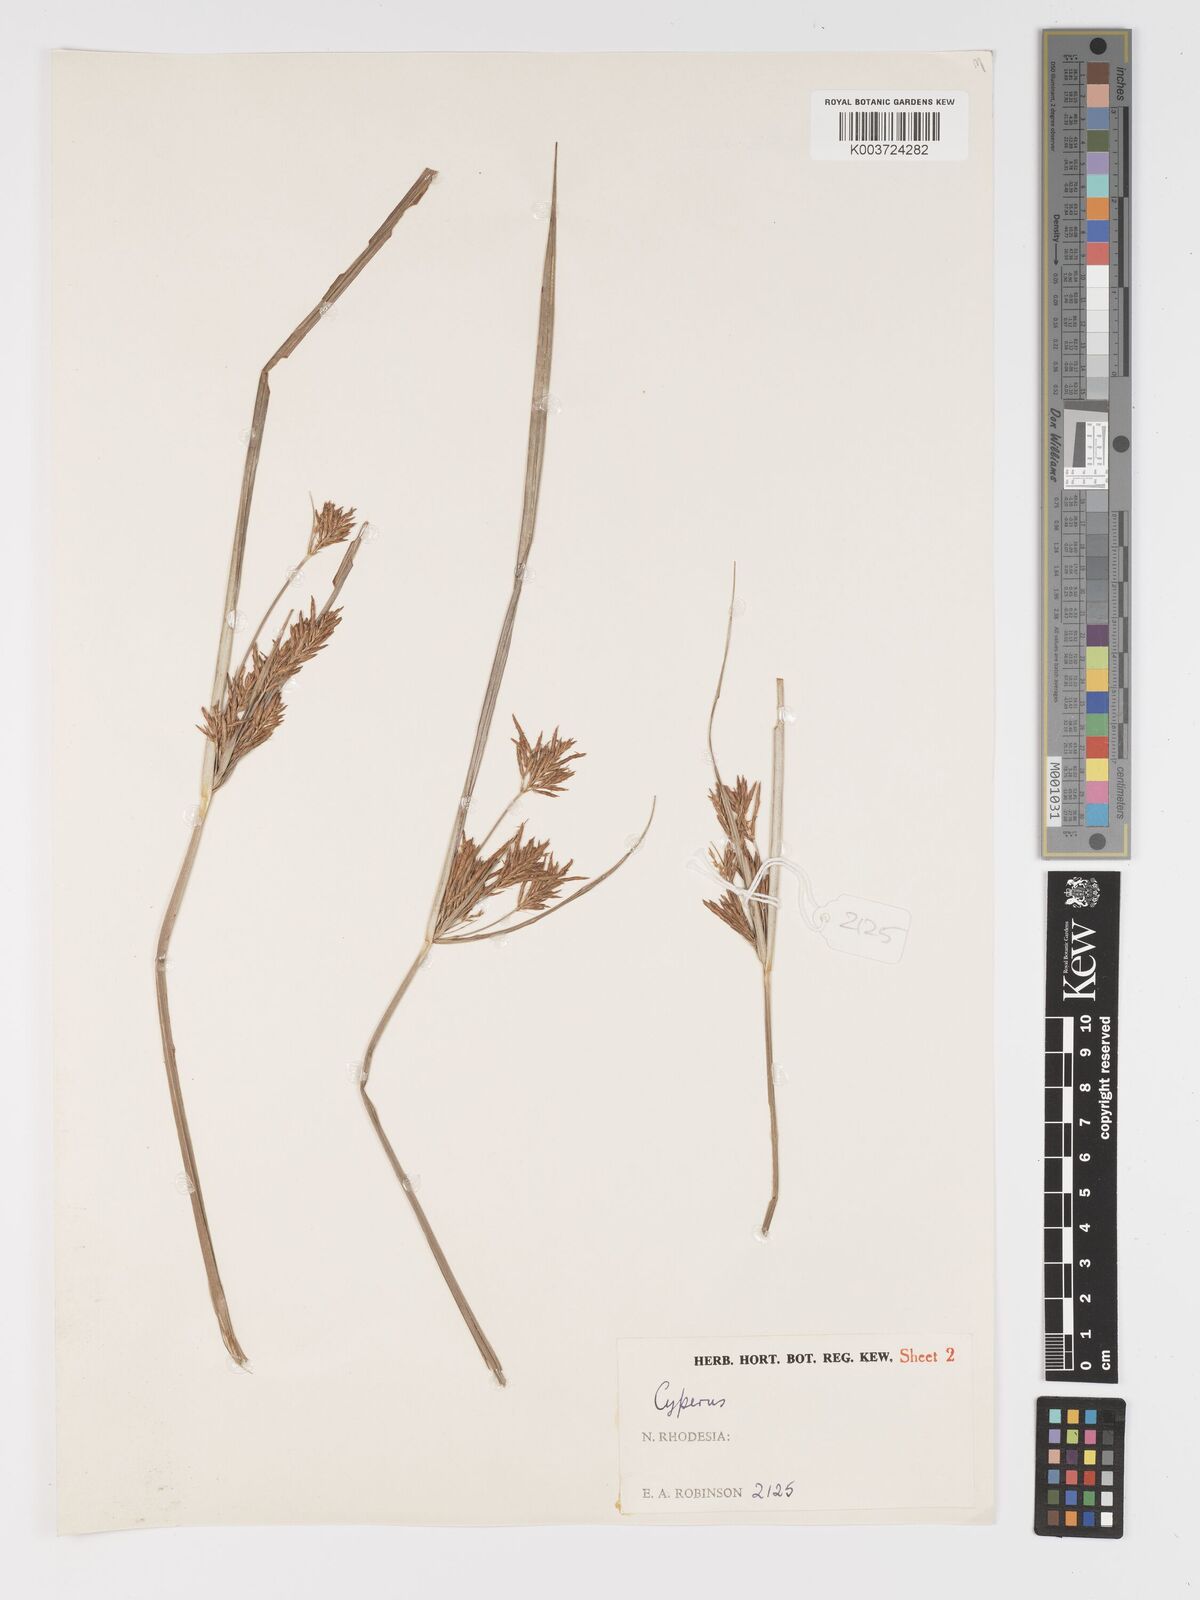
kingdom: Plantae
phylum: Tracheophyta
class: Liliopsida
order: Poales
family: Cyperaceae
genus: Cyperus
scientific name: Cyperus
